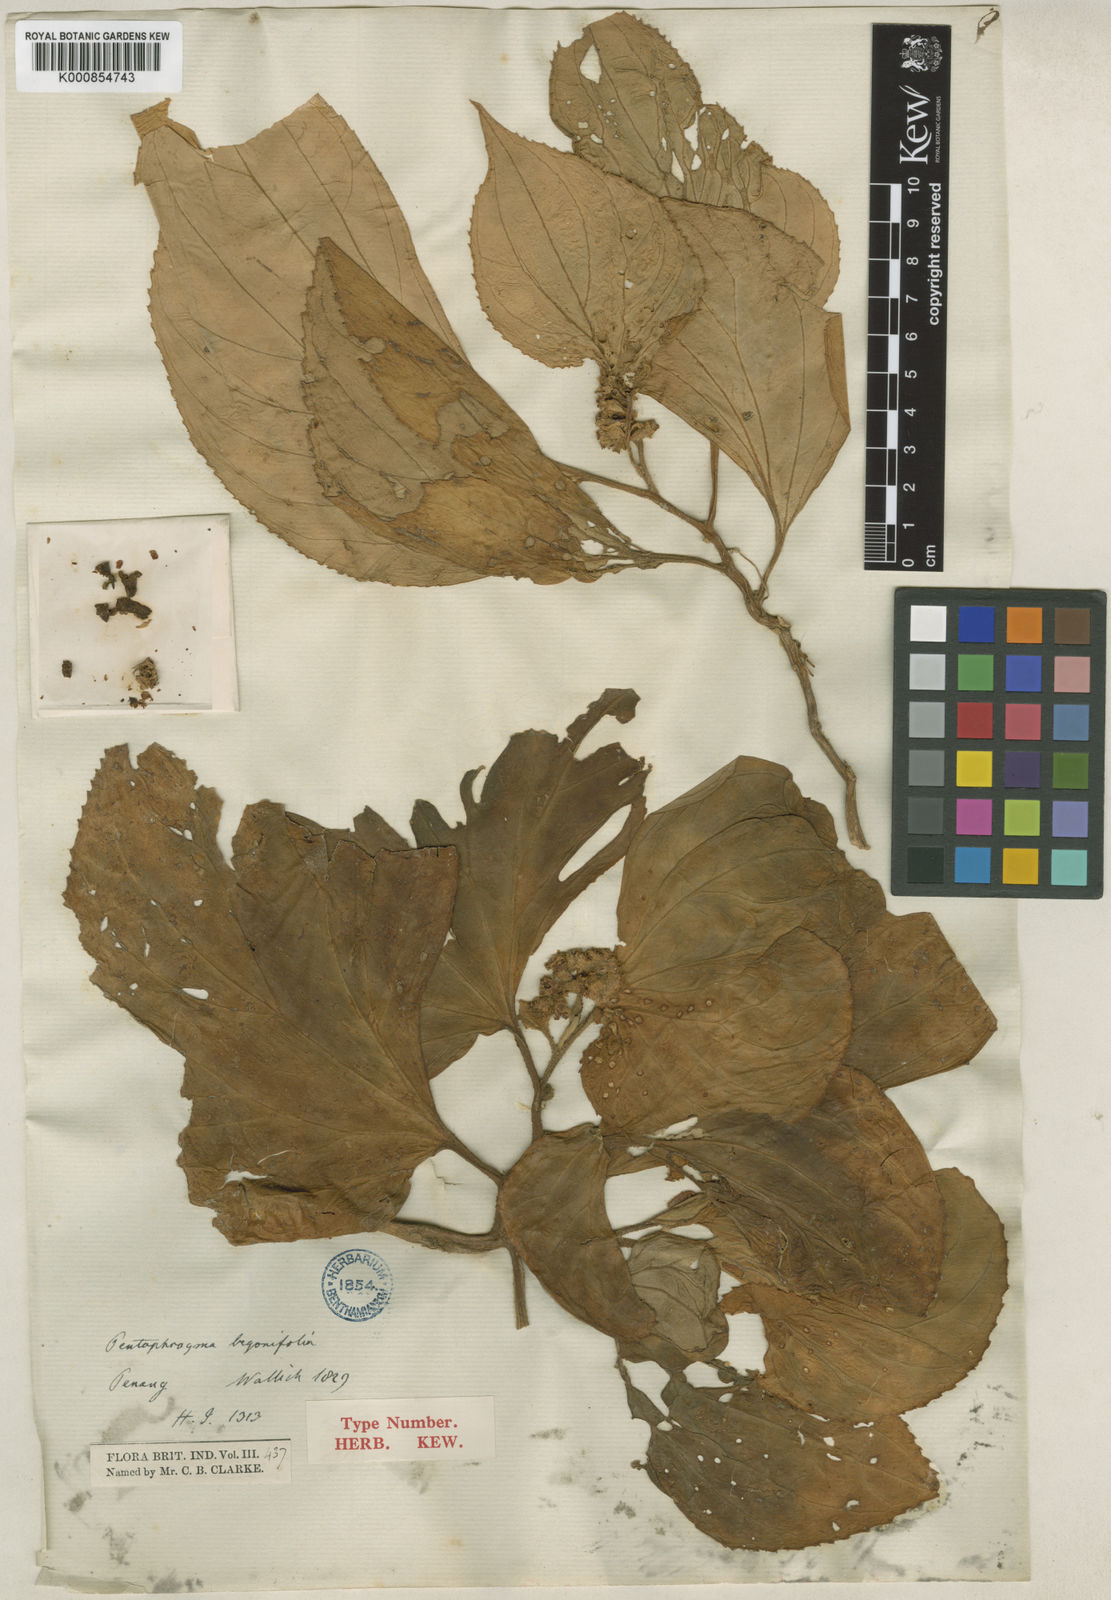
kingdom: Plantae
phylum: Tracheophyta
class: Magnoliopsida
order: Asterales
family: Pentaphragmataceae
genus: Pentaphragma
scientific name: Pentaphragma
